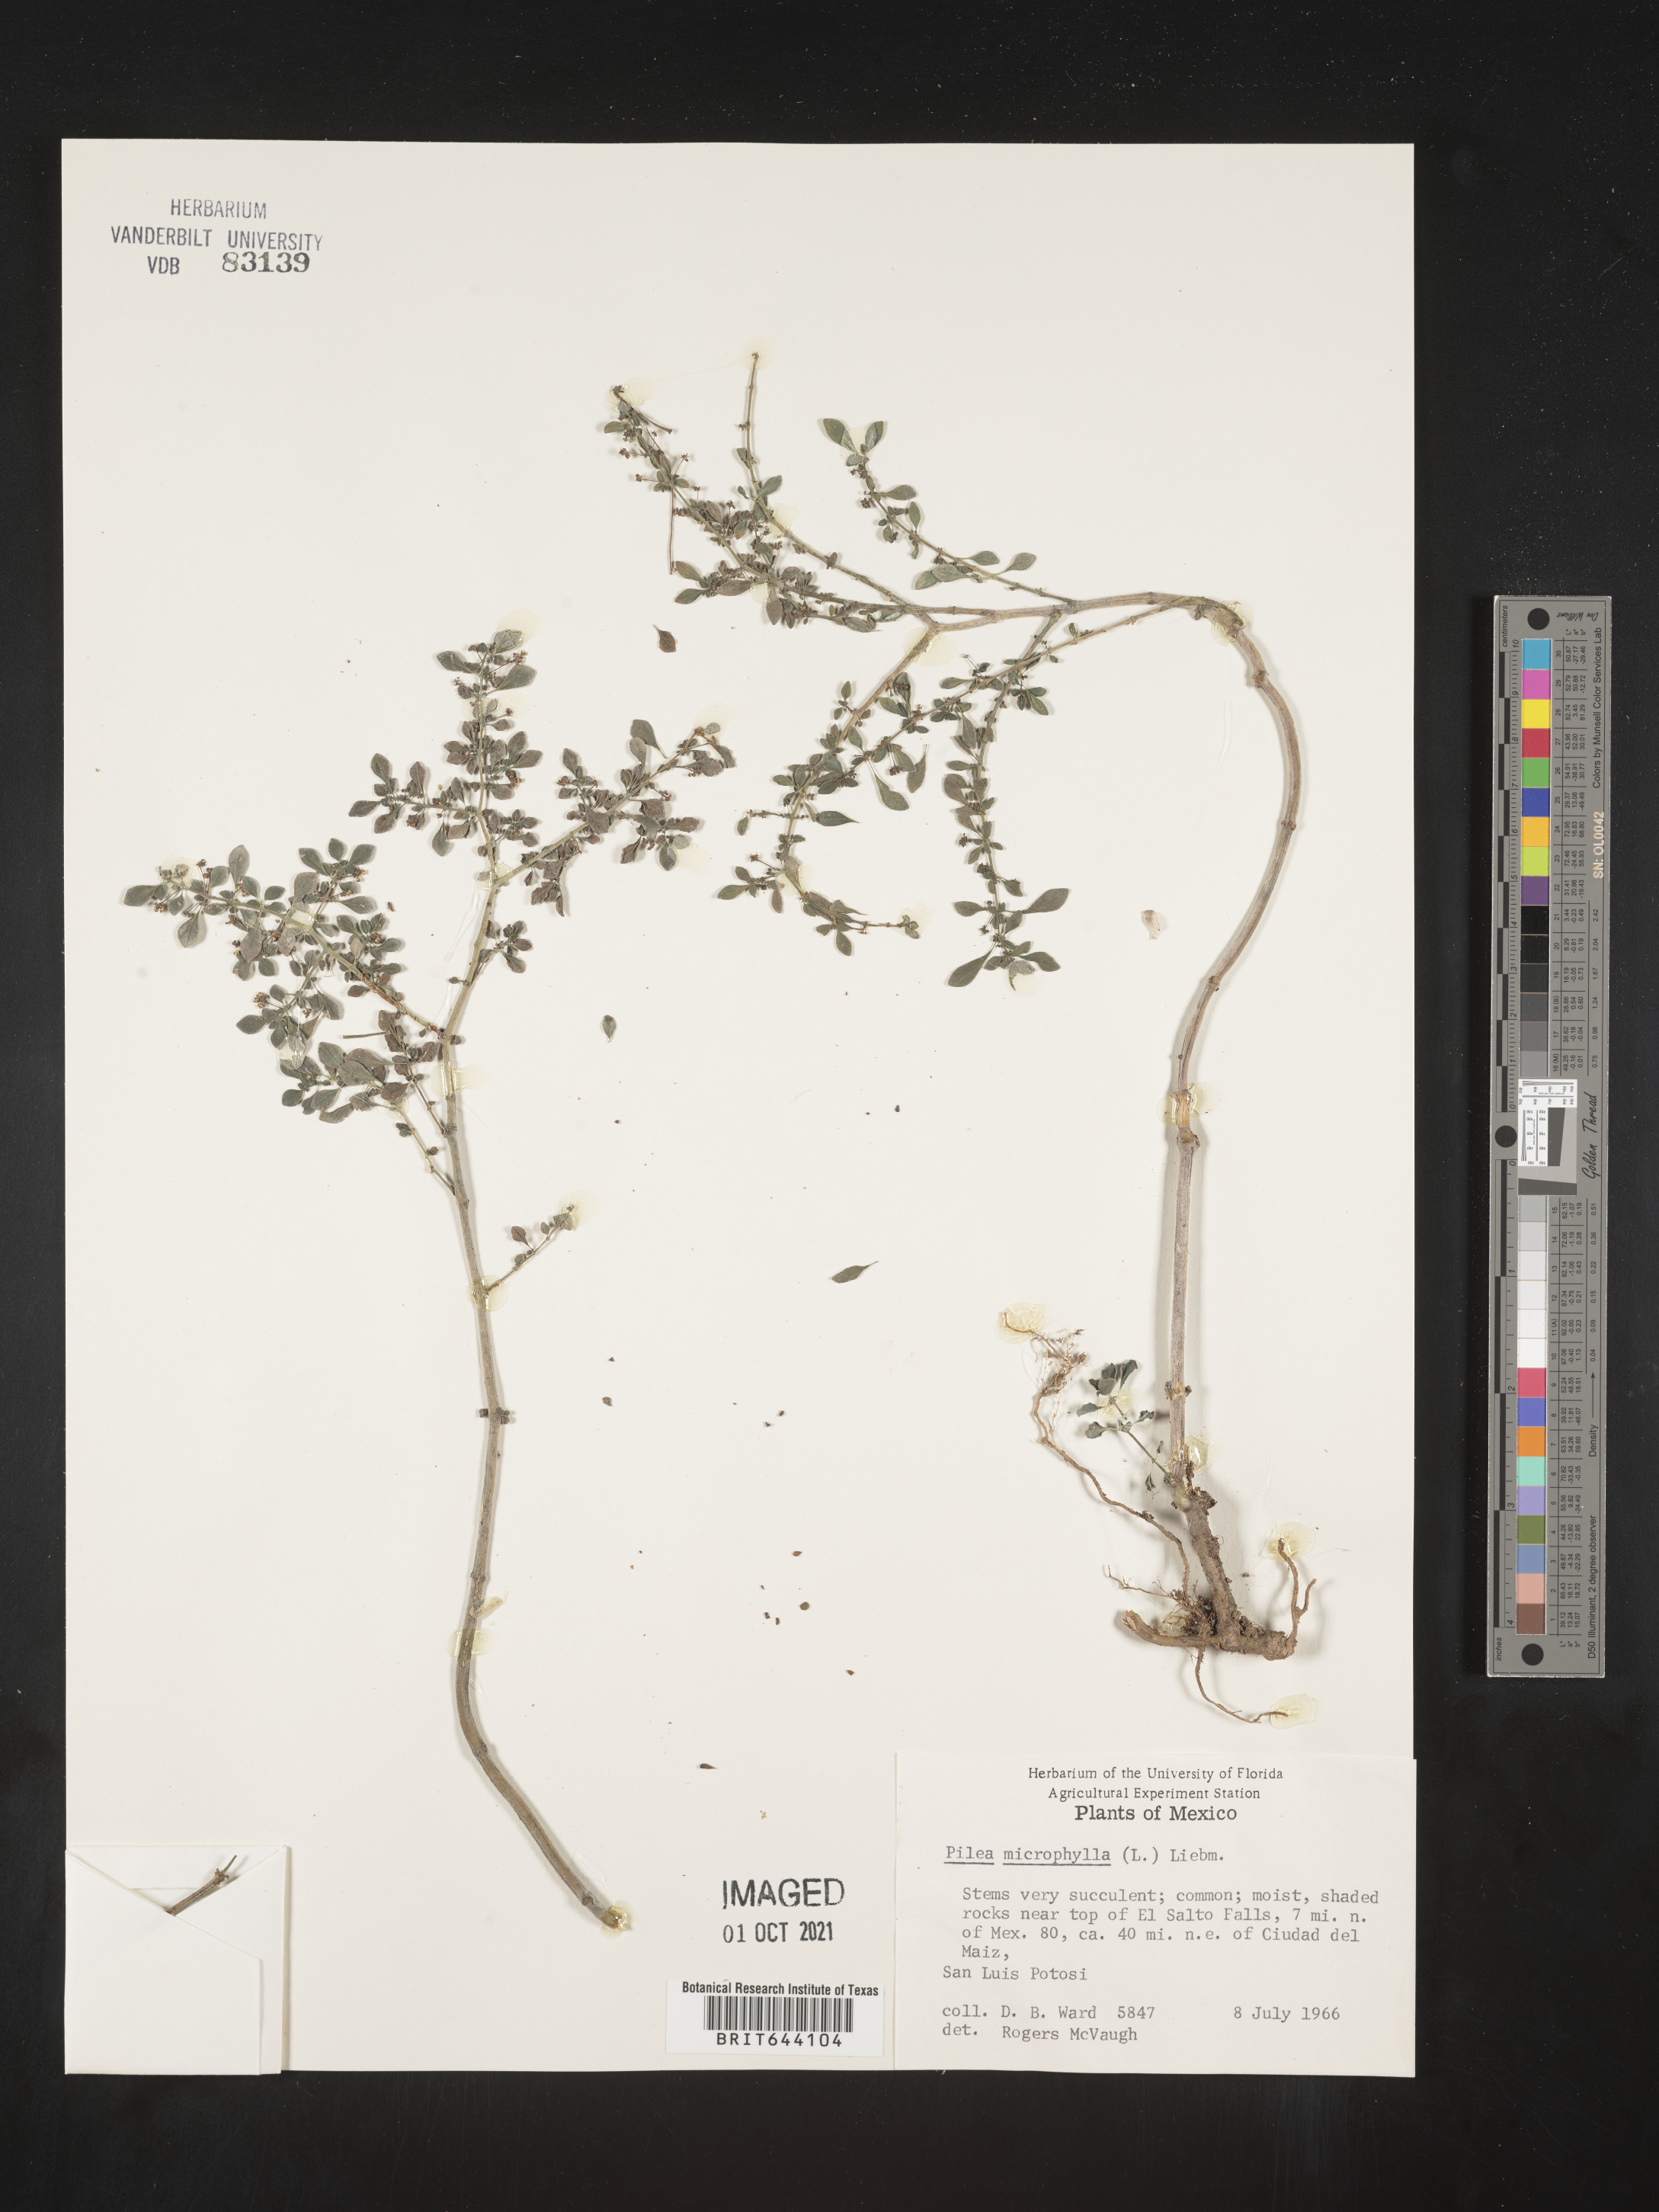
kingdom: Plantae
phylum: Tracheophyta
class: Magnoliopsida
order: Rosales
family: Urticaceae
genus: Pilea
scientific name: Pilea
